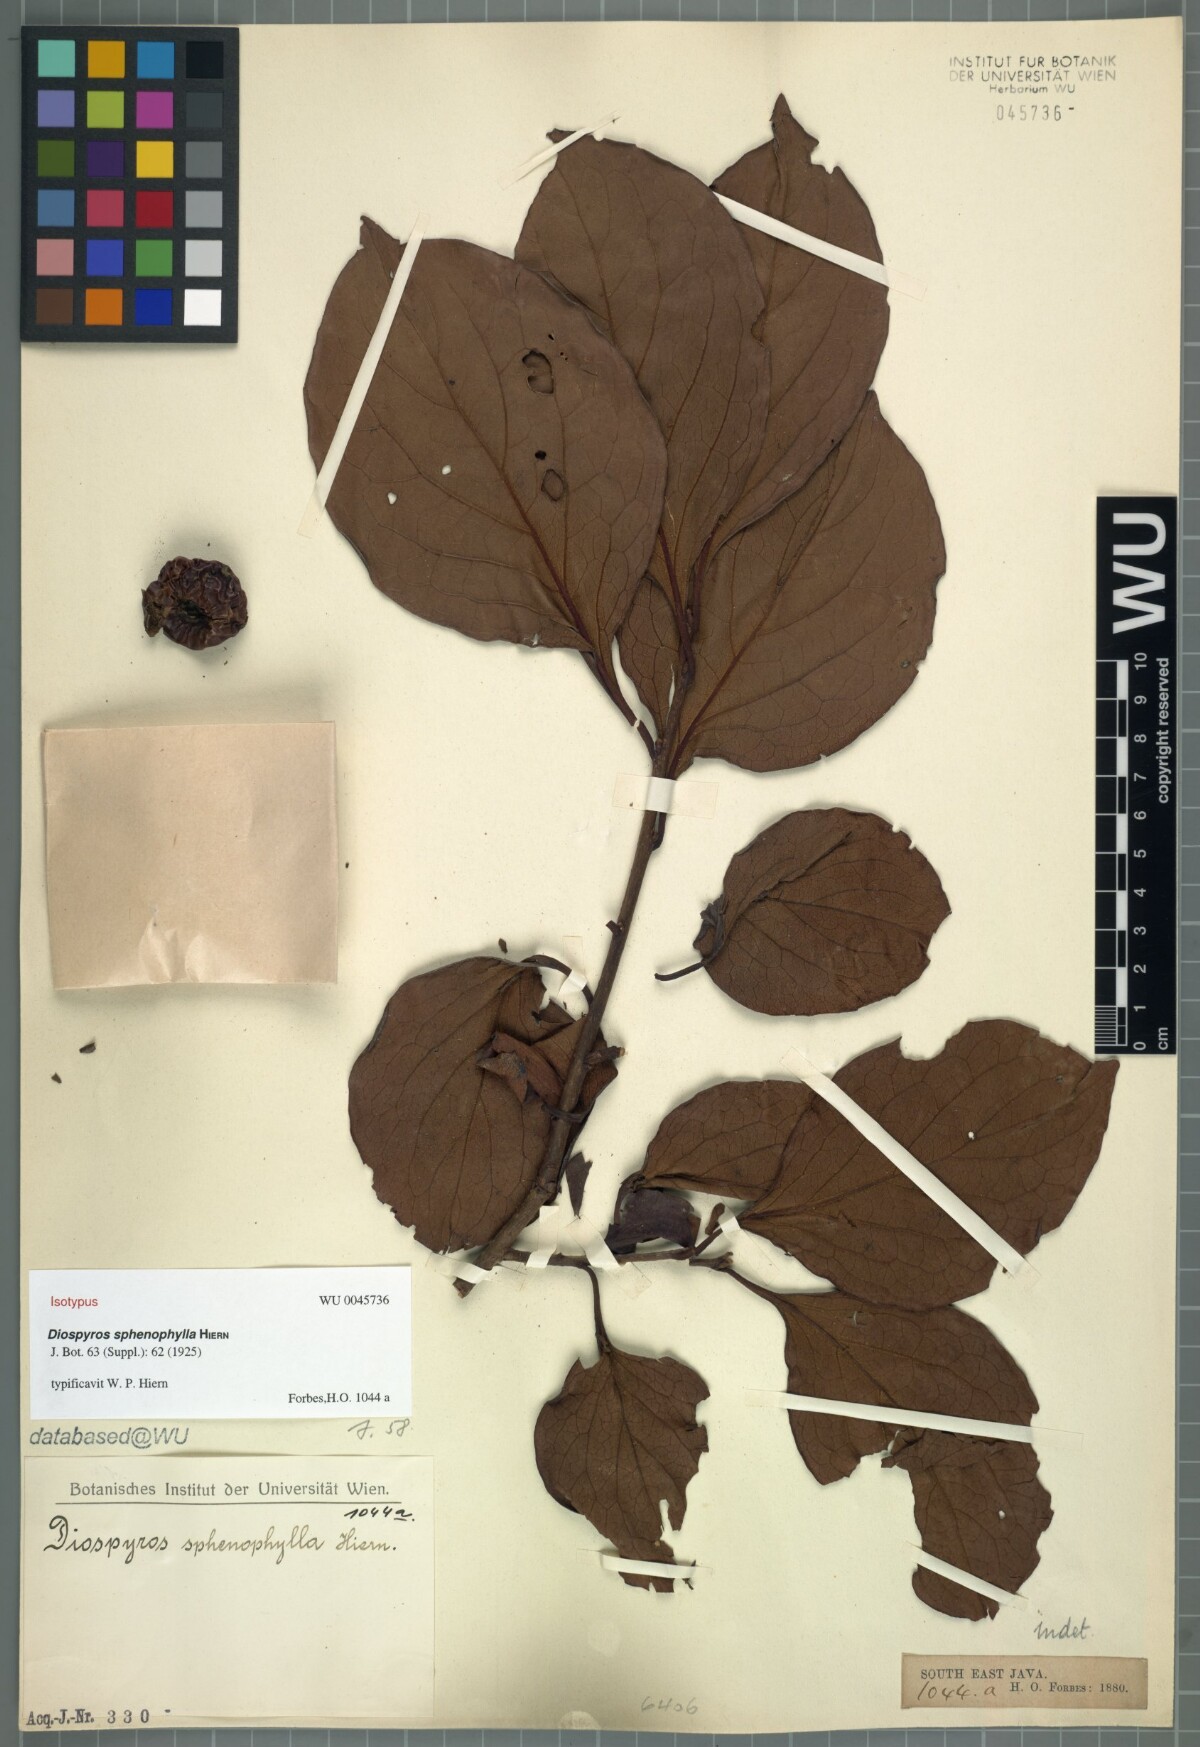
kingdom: Plantae
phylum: Tracheophyta
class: Magnoliopsida
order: Ericales
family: Ebenaceae
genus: Diospyros
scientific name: Diospyros kaki
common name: Persimmon
